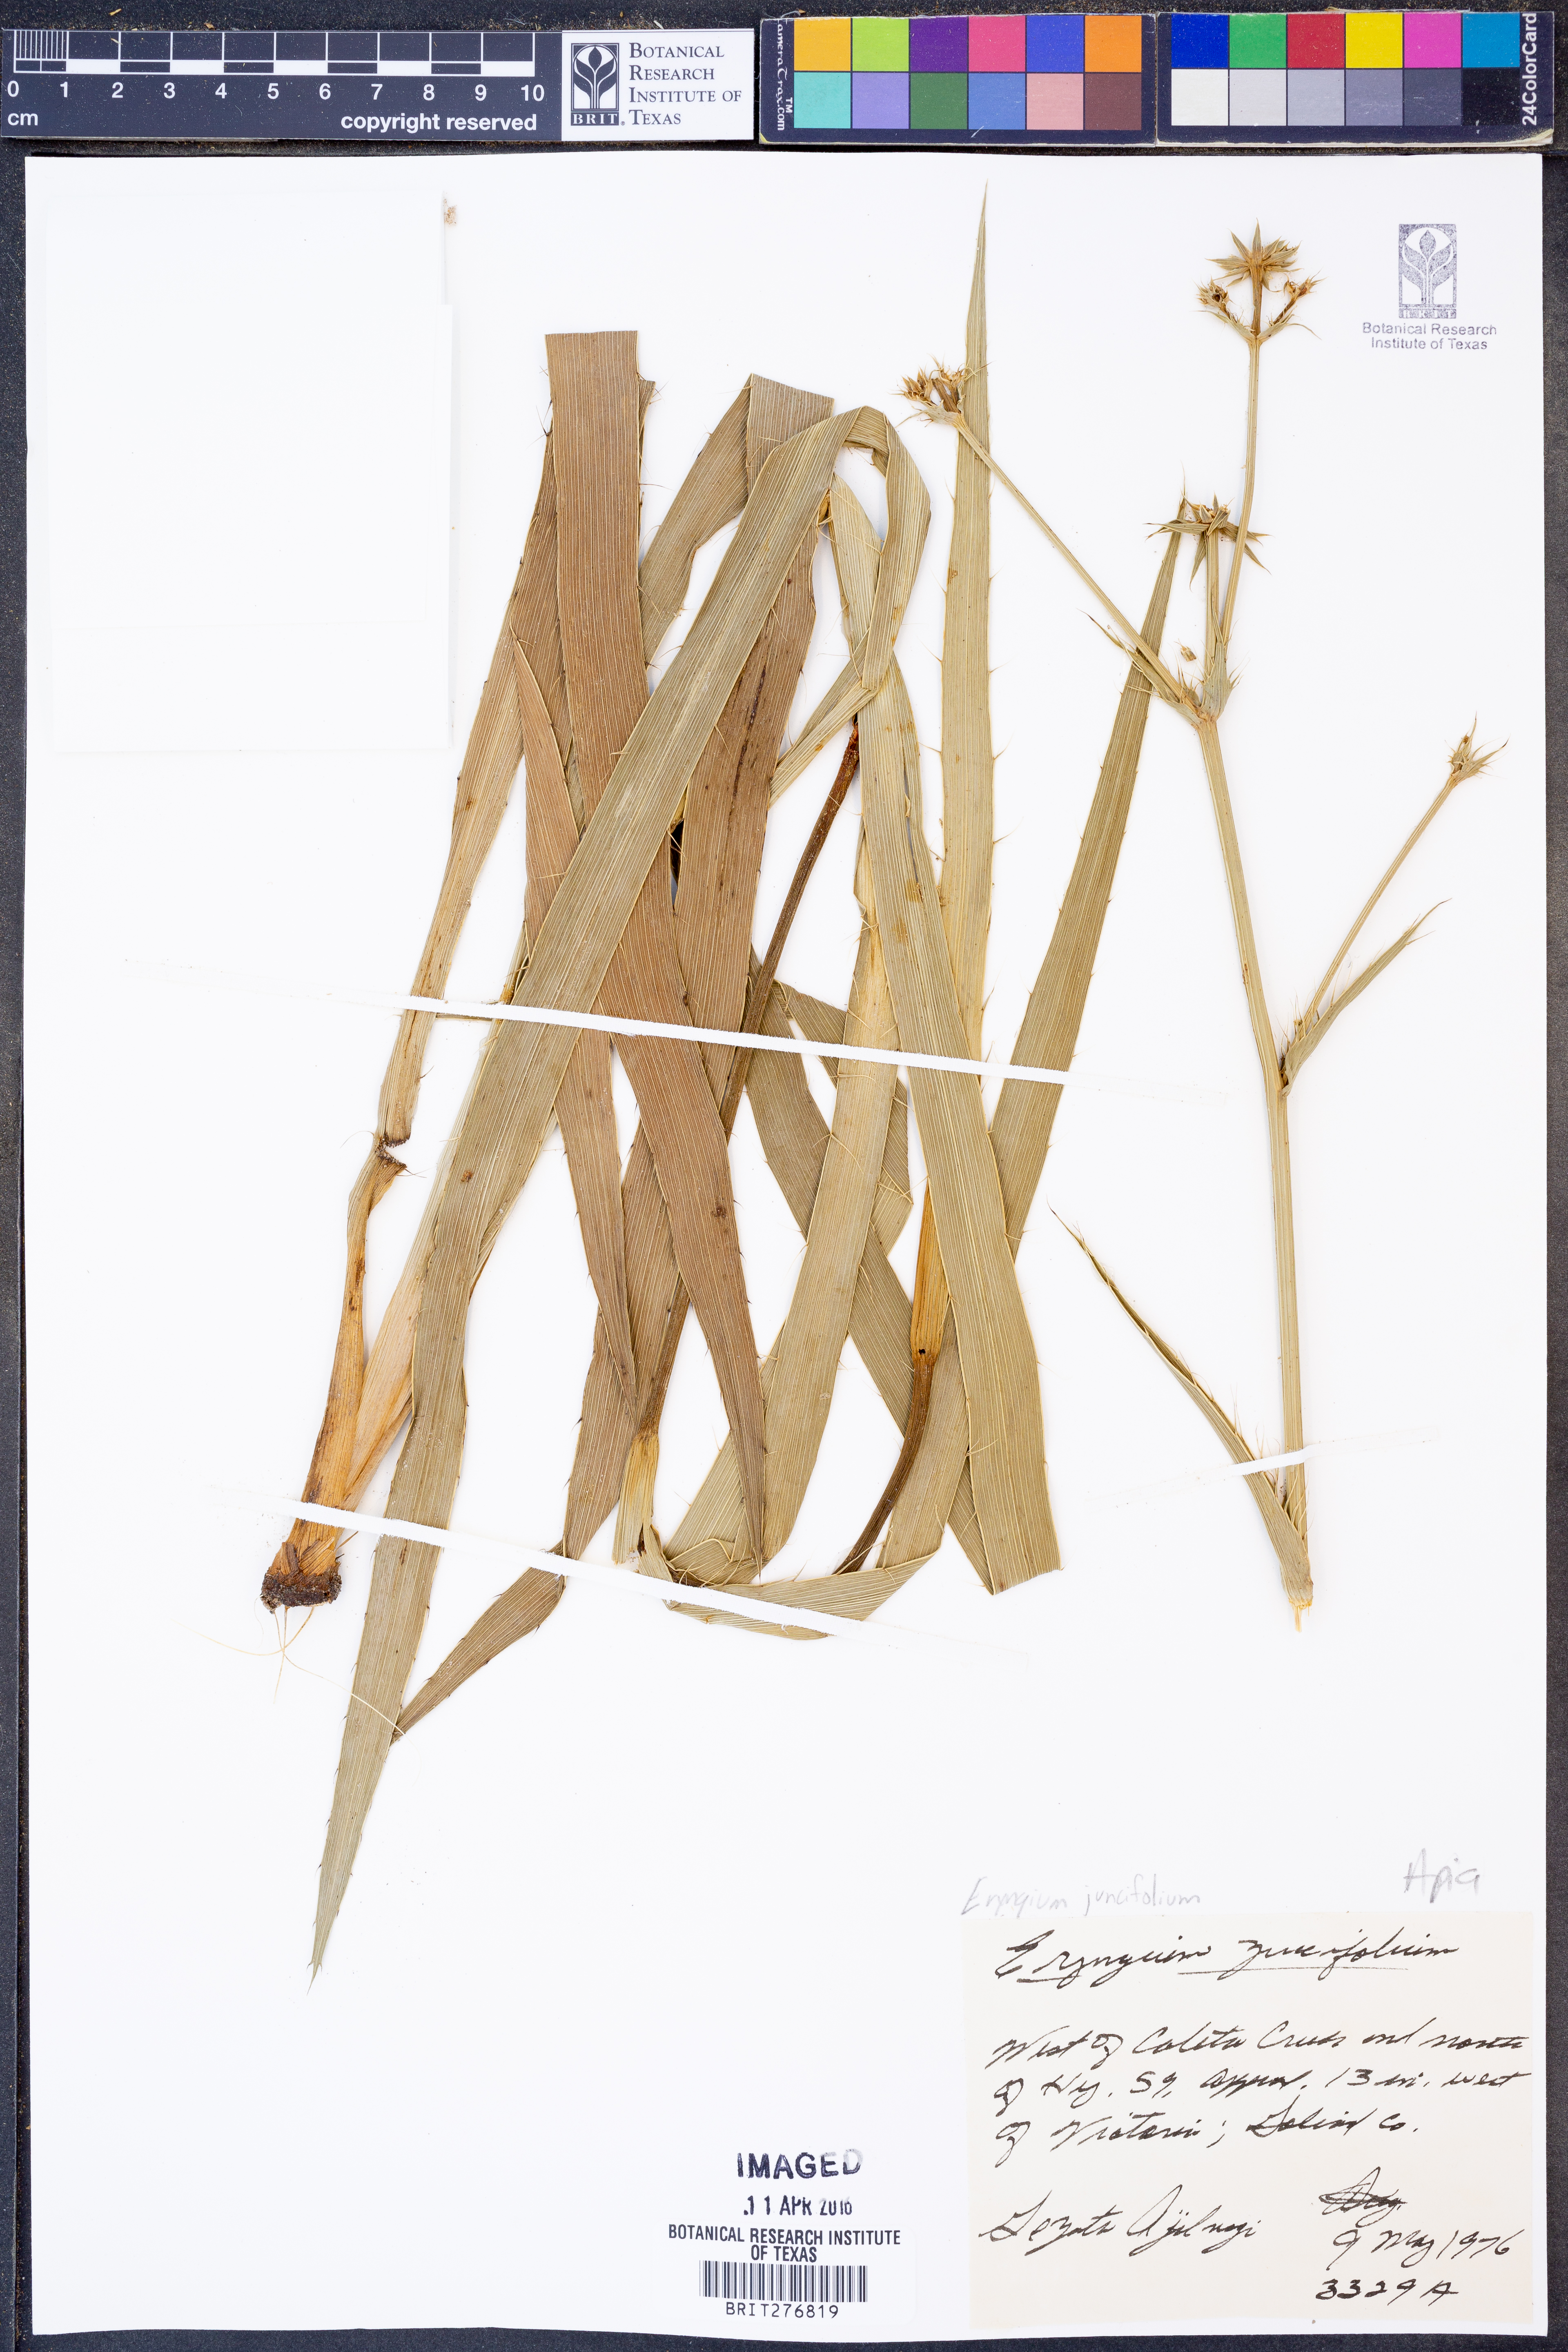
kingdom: Plantae
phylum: Tracheophyta
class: Magnoliopsida
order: Apiales
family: Apiaceae
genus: Eryngium
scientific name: Eryngium yuccifolium
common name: Button eryngo
